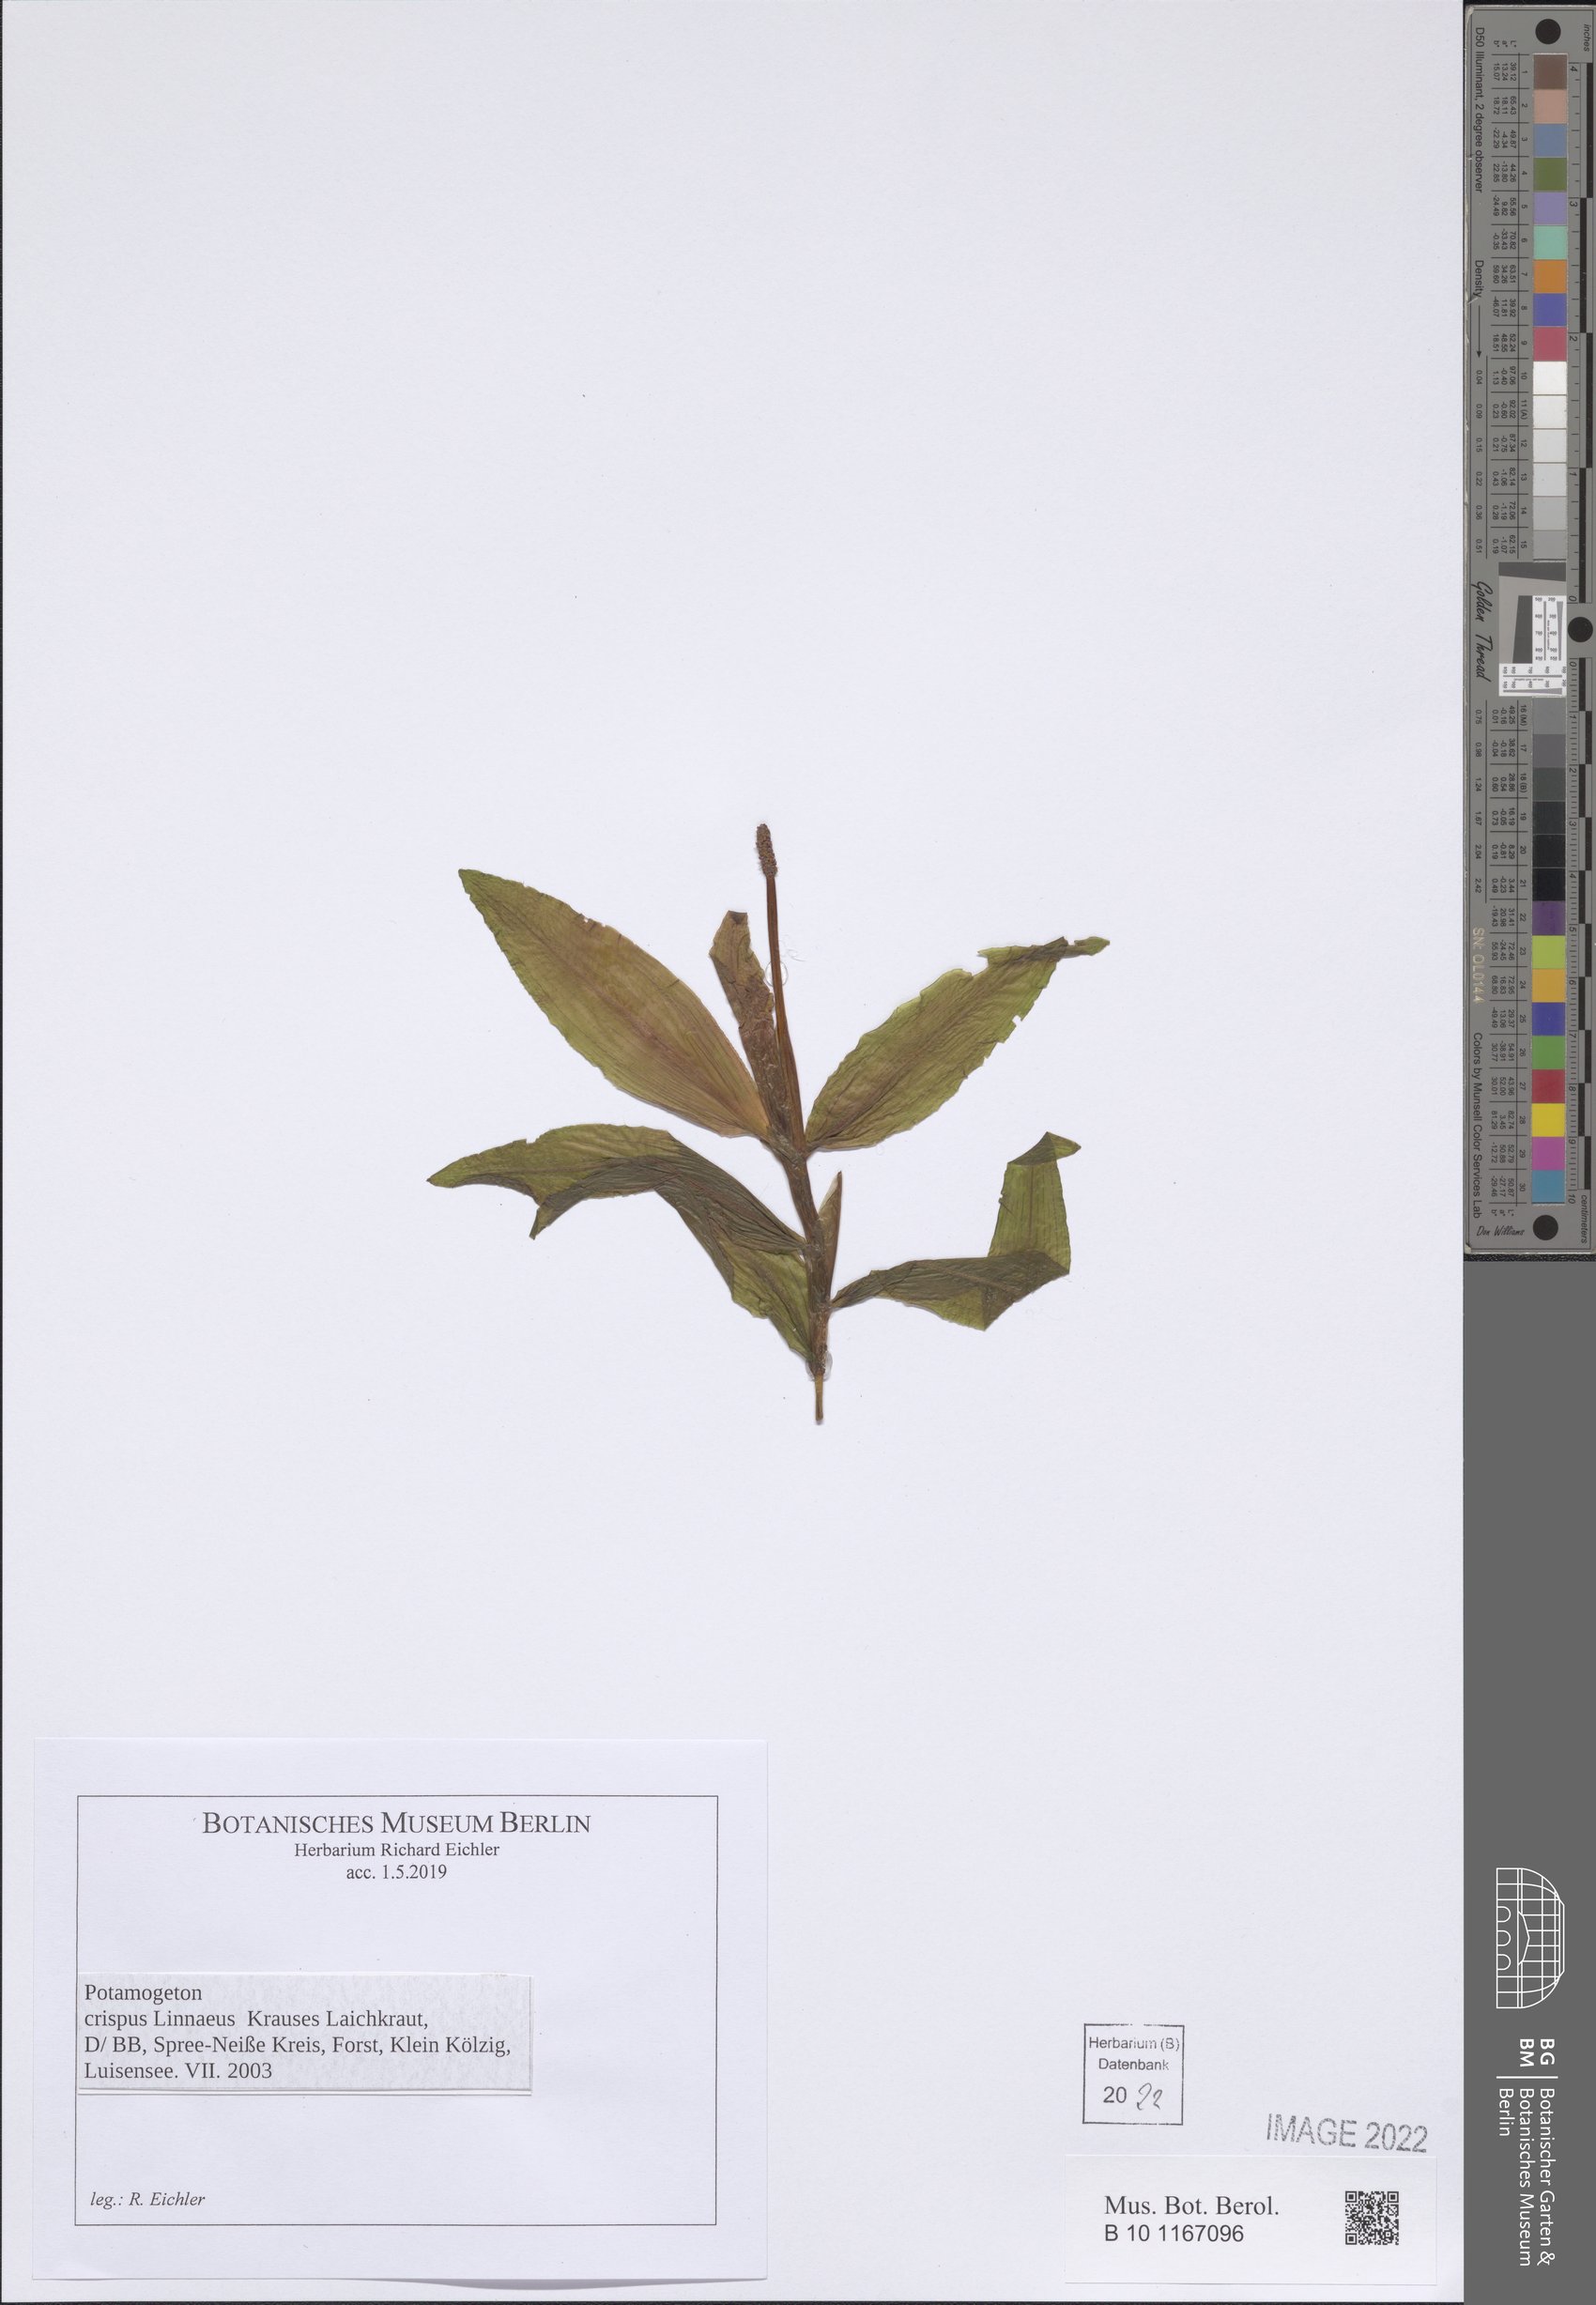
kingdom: Plantae
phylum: Tracheophyta
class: Liliopsida
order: Alismatales
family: Potamogetonaceae
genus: Potamogeton
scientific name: Potamogeton crispus
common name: Curled pondweed
